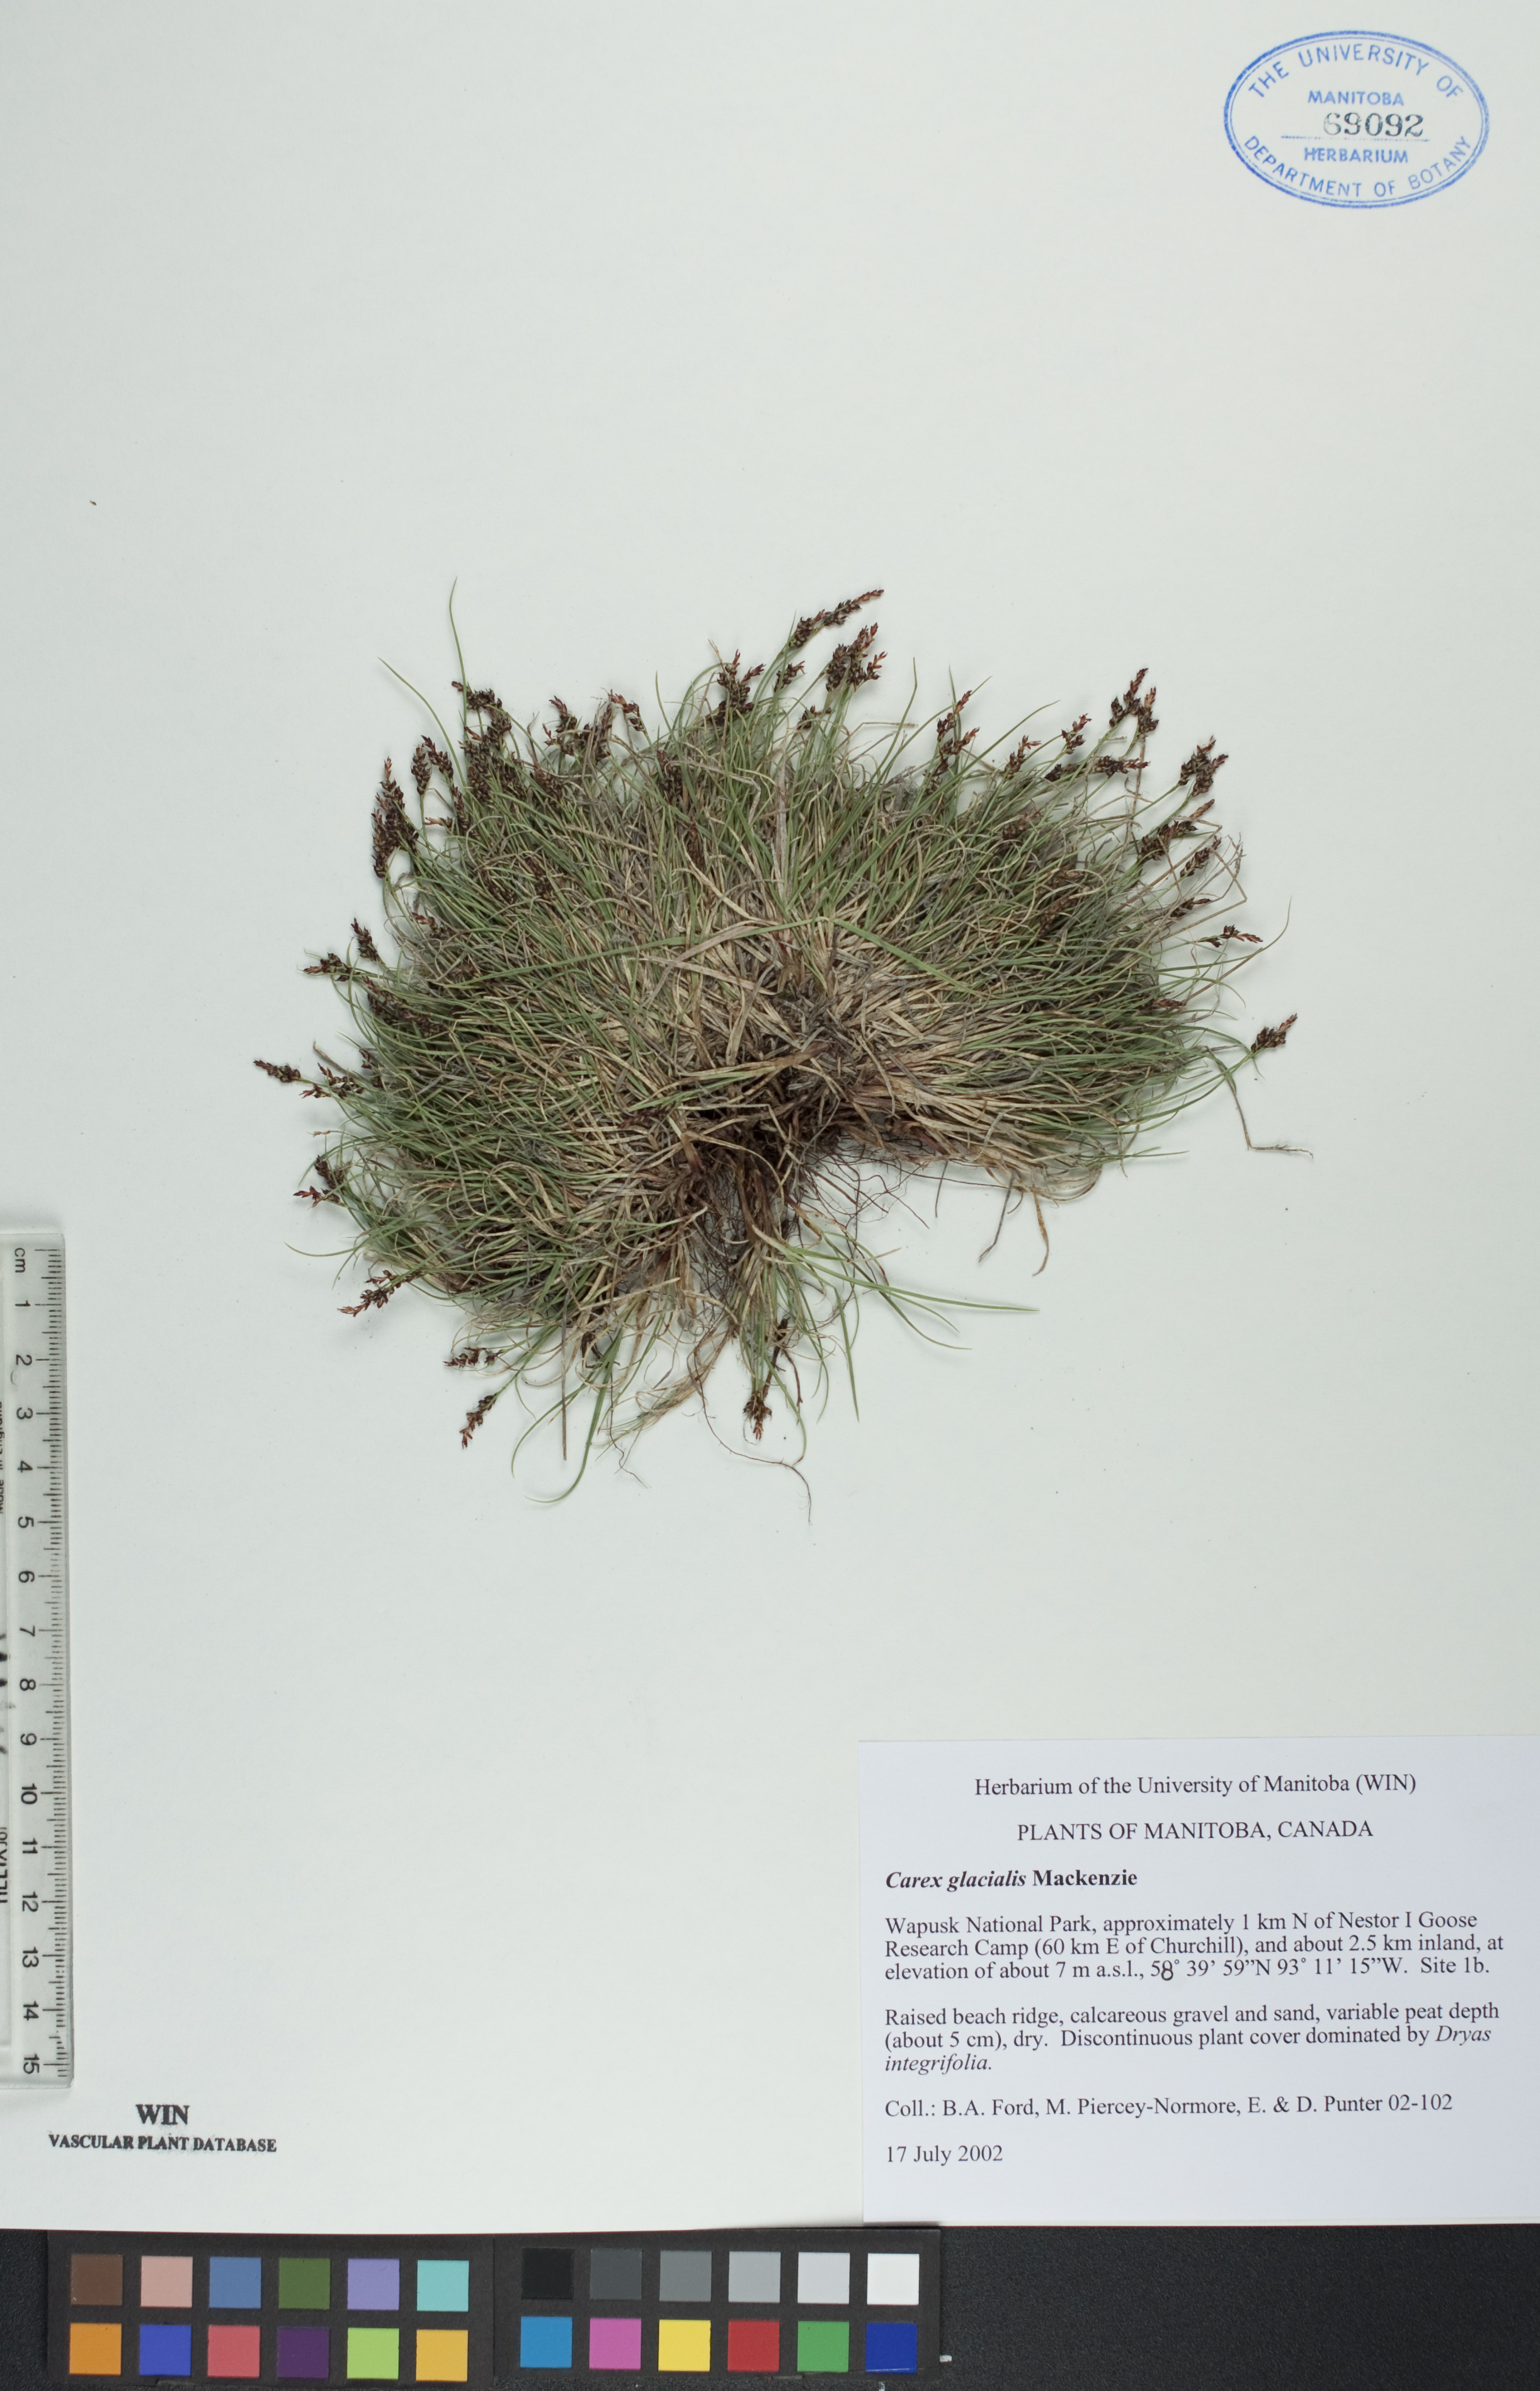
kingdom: Plantae
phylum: Tracheophyta
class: Liliopsida
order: Poales
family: Cyperaceae
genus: Carex
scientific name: Carex glacialis
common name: Newfoundland sedge
